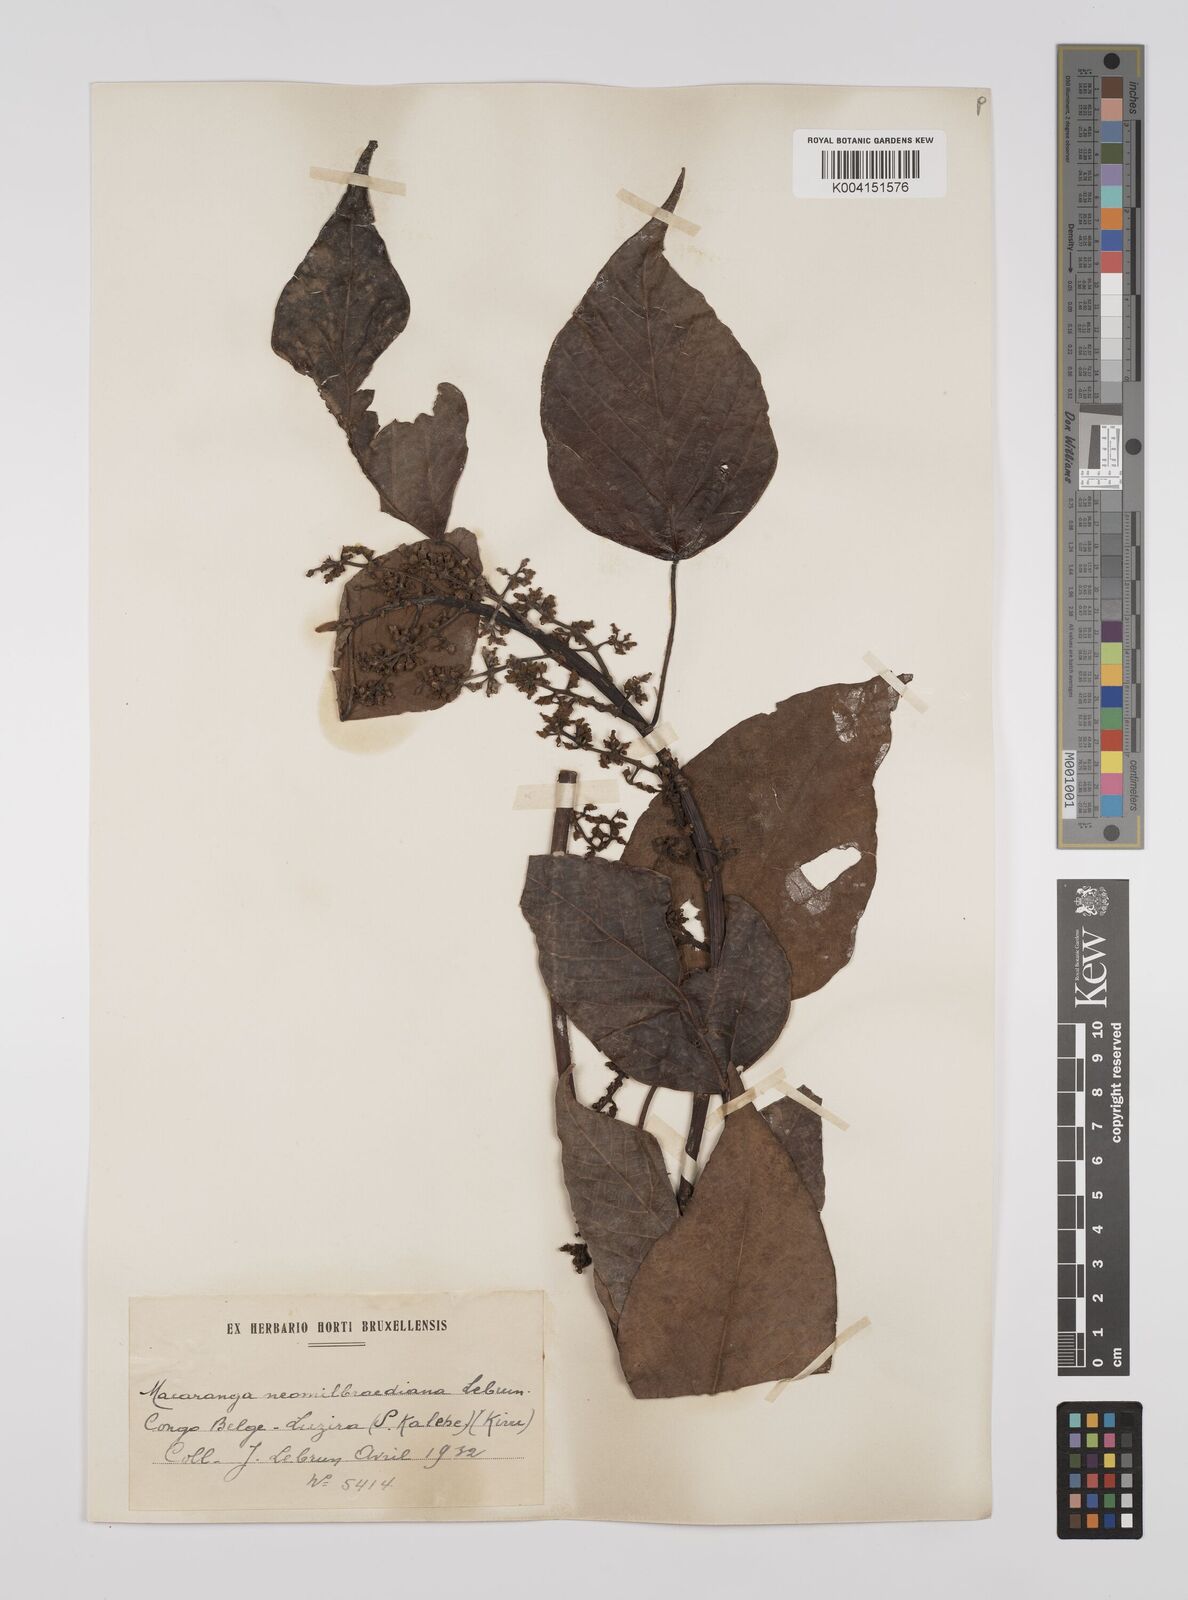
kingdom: Plantae
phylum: Tracheophyta
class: Magnoliopsida
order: Malpighiales
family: Euphorbiaceae
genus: Macaranga
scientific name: Macaranga kilimandscharica
